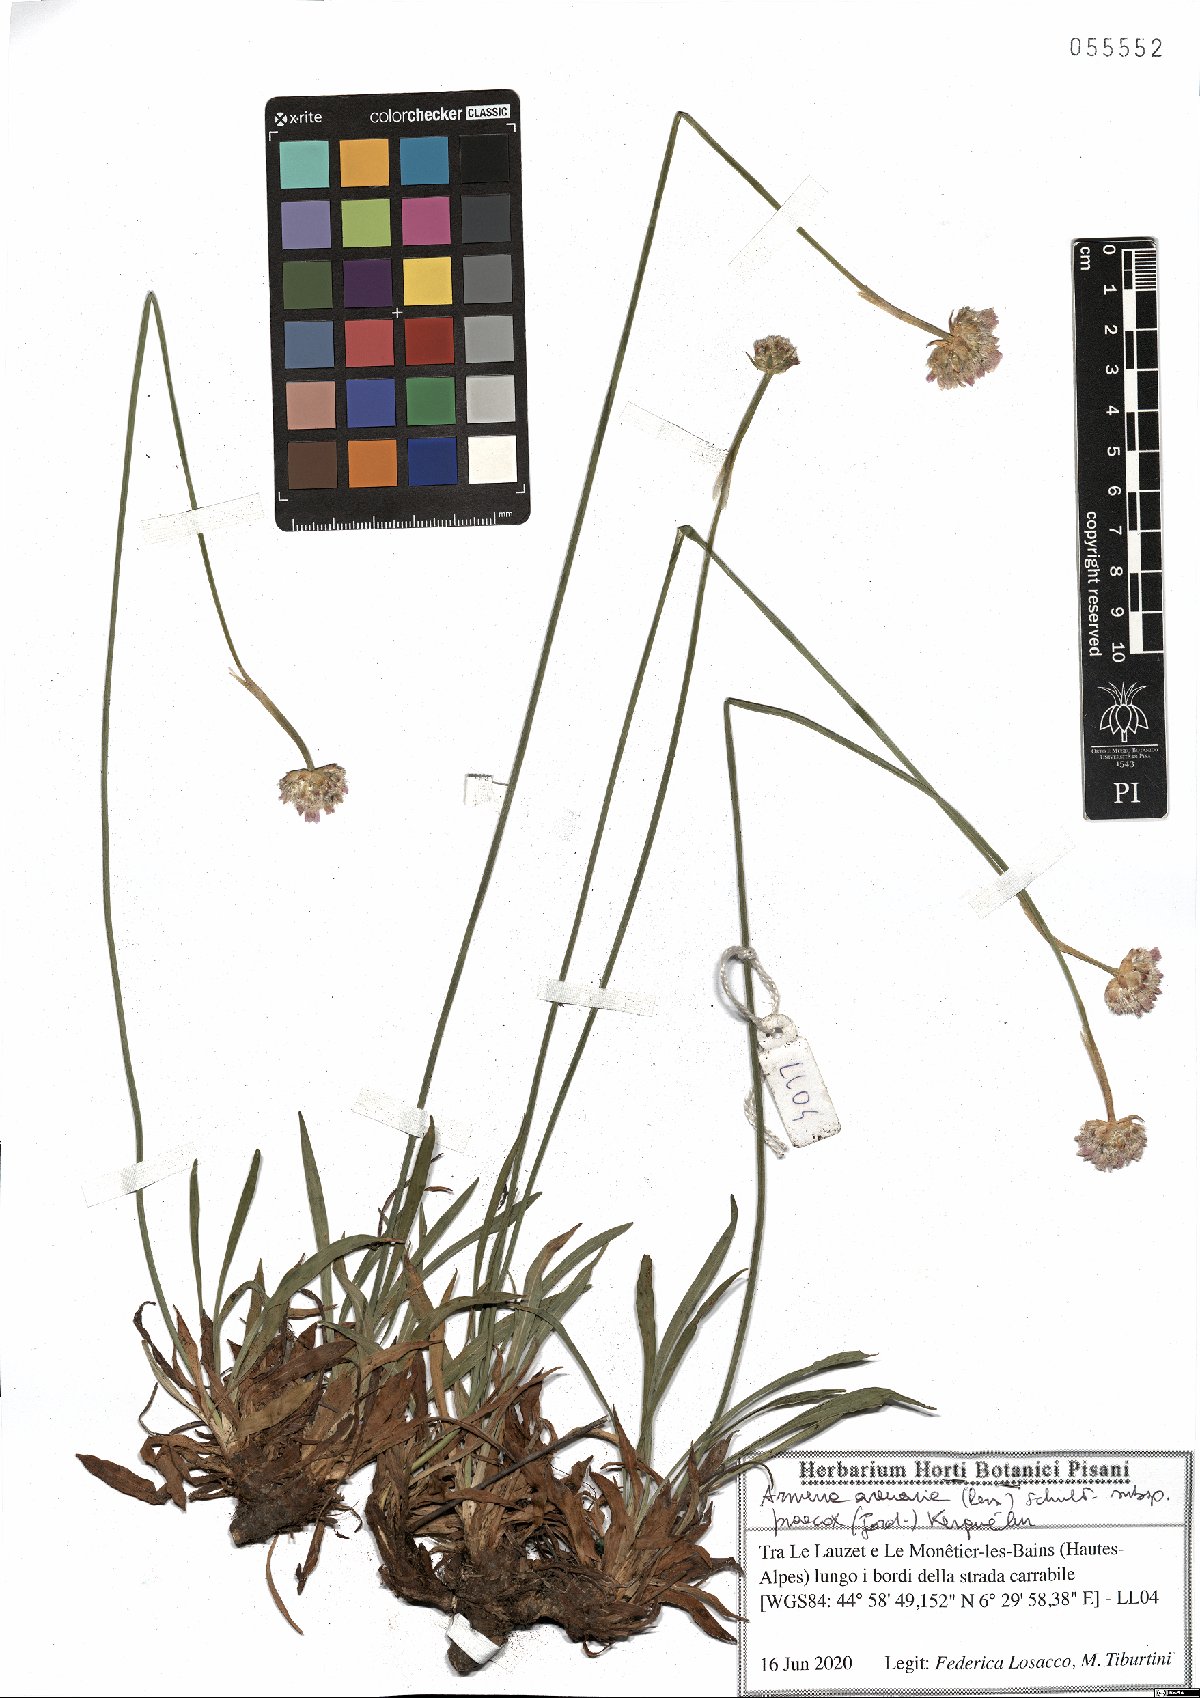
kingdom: Plantae
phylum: Tracheophyta
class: Magnoliopsida
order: Caryophyllales
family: Plumbaginaceae
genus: Armeria
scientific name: Armeria arenaria
